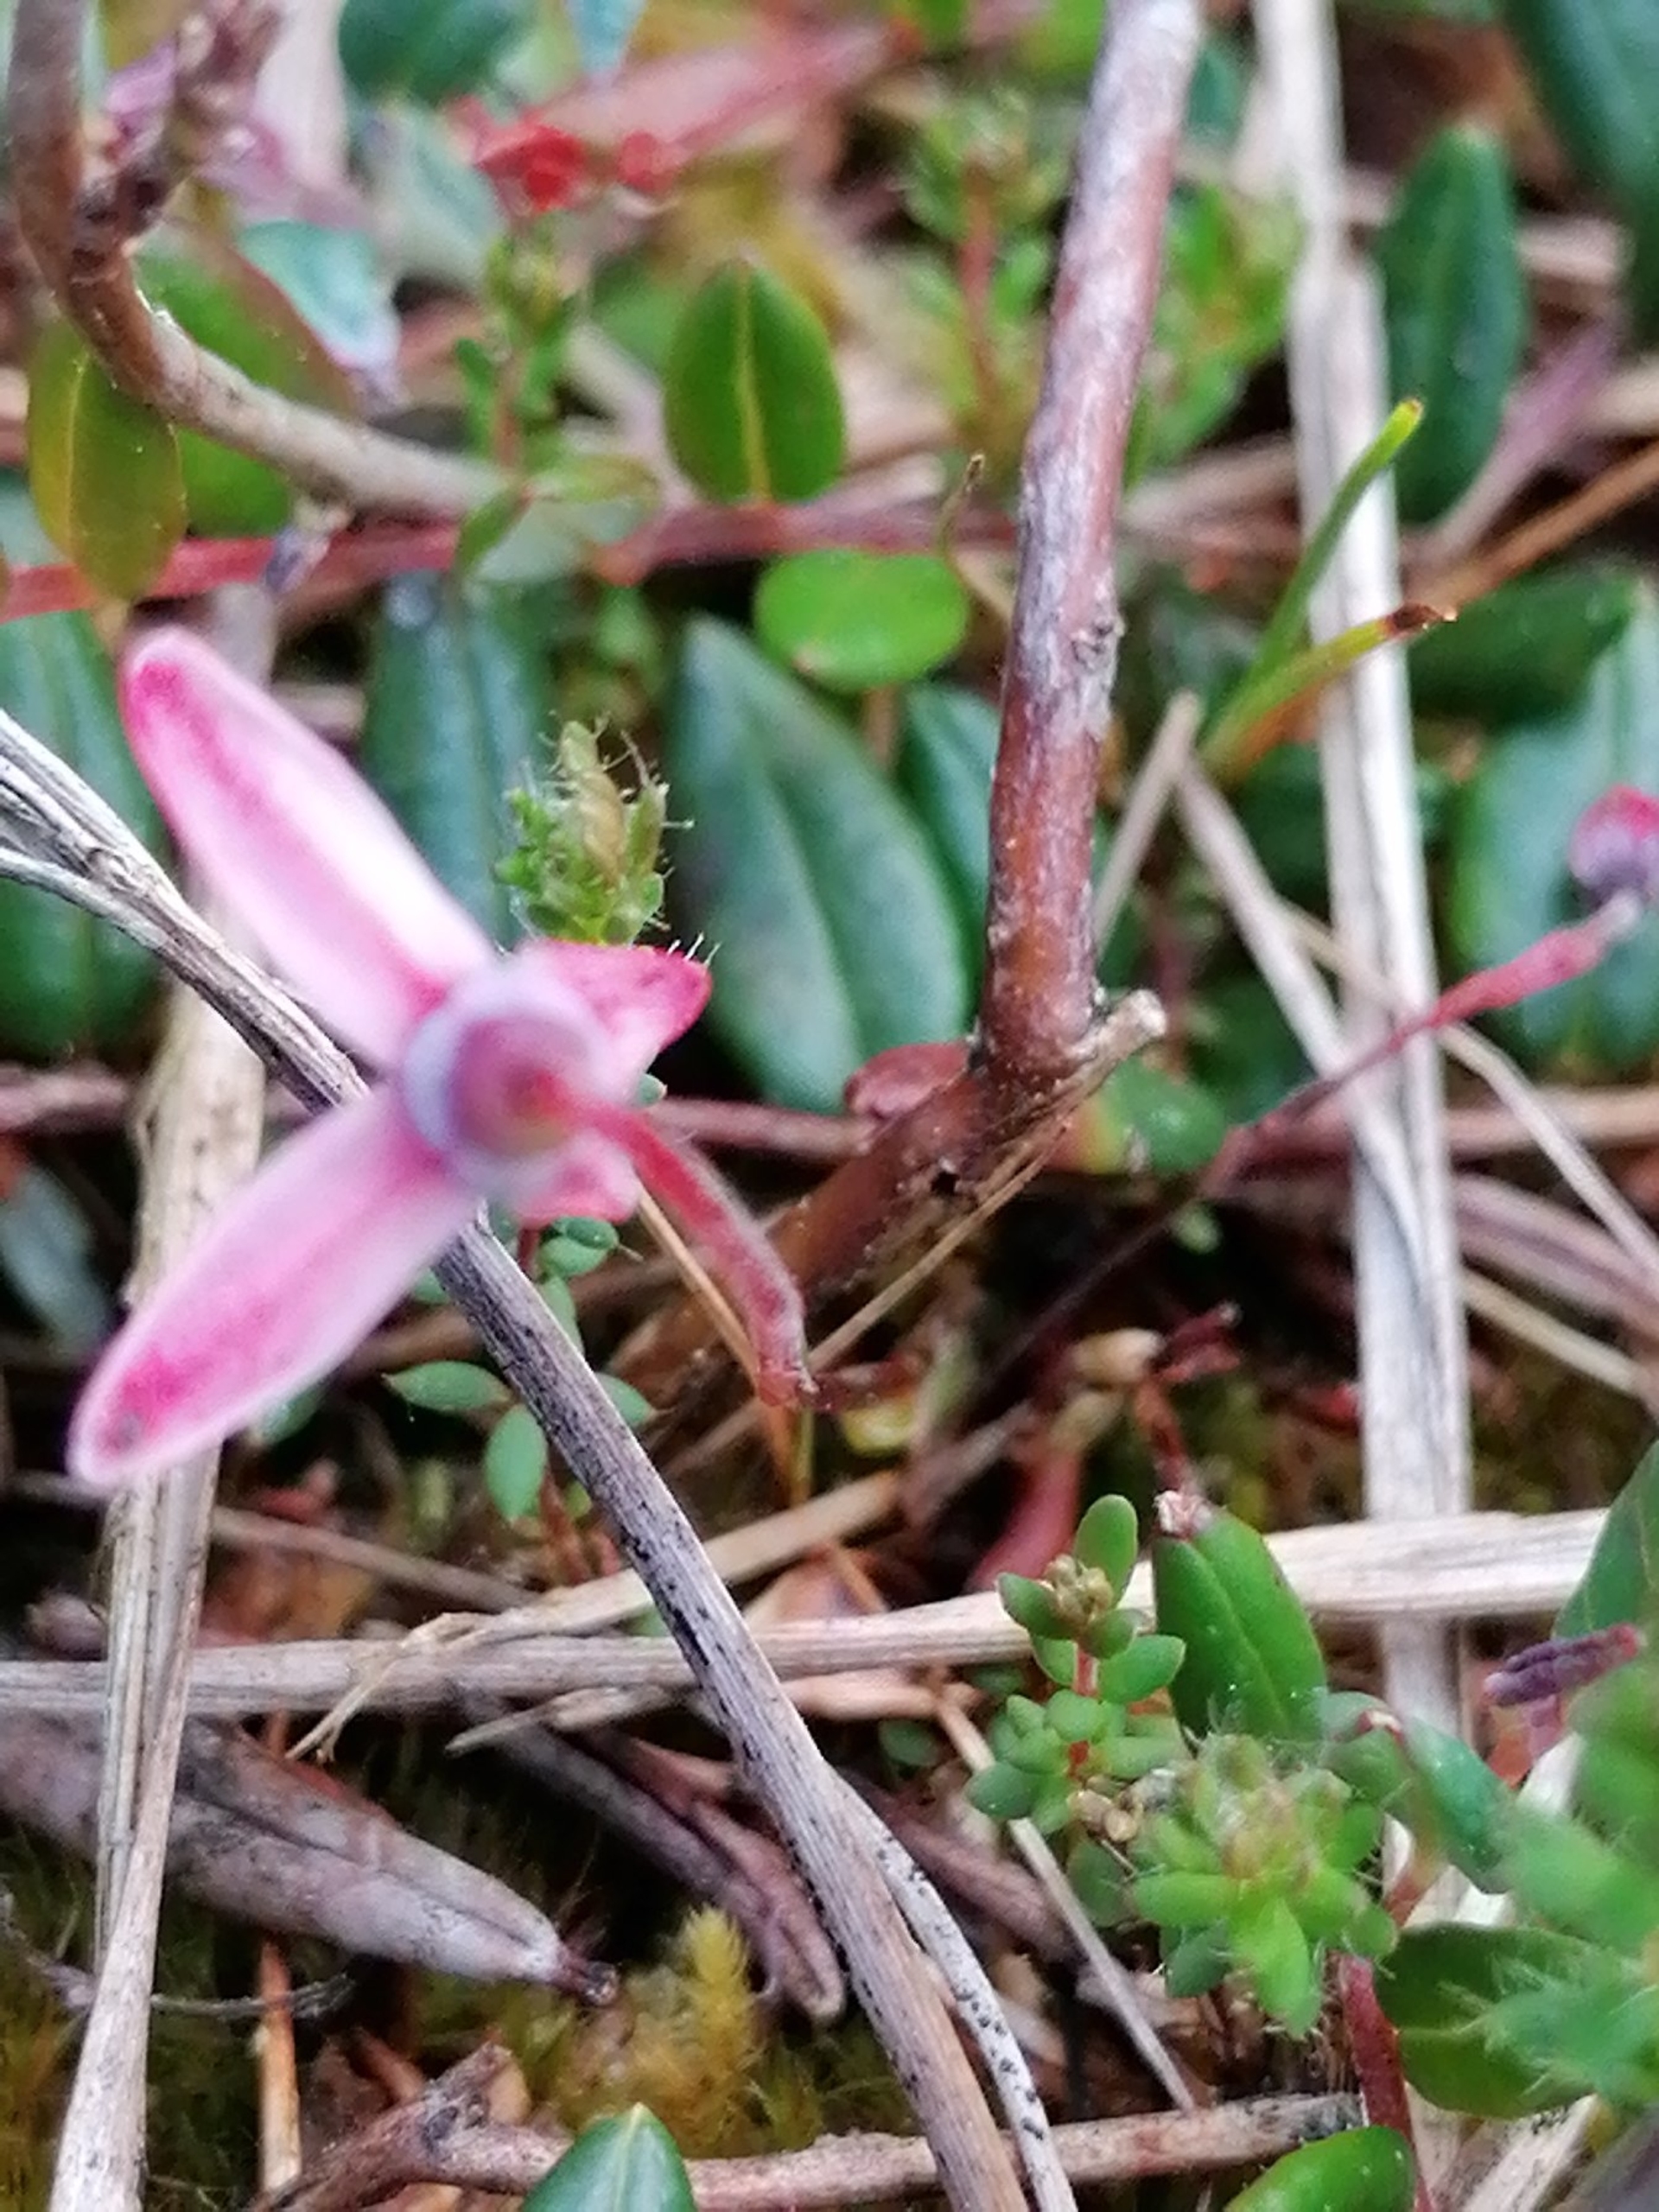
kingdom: Plantae
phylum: Tracheophyta
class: Magnoliopsida
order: Ericales
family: Ericaceae
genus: Vaccinium
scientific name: Vaccinium oxycoccos
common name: Tranebær
